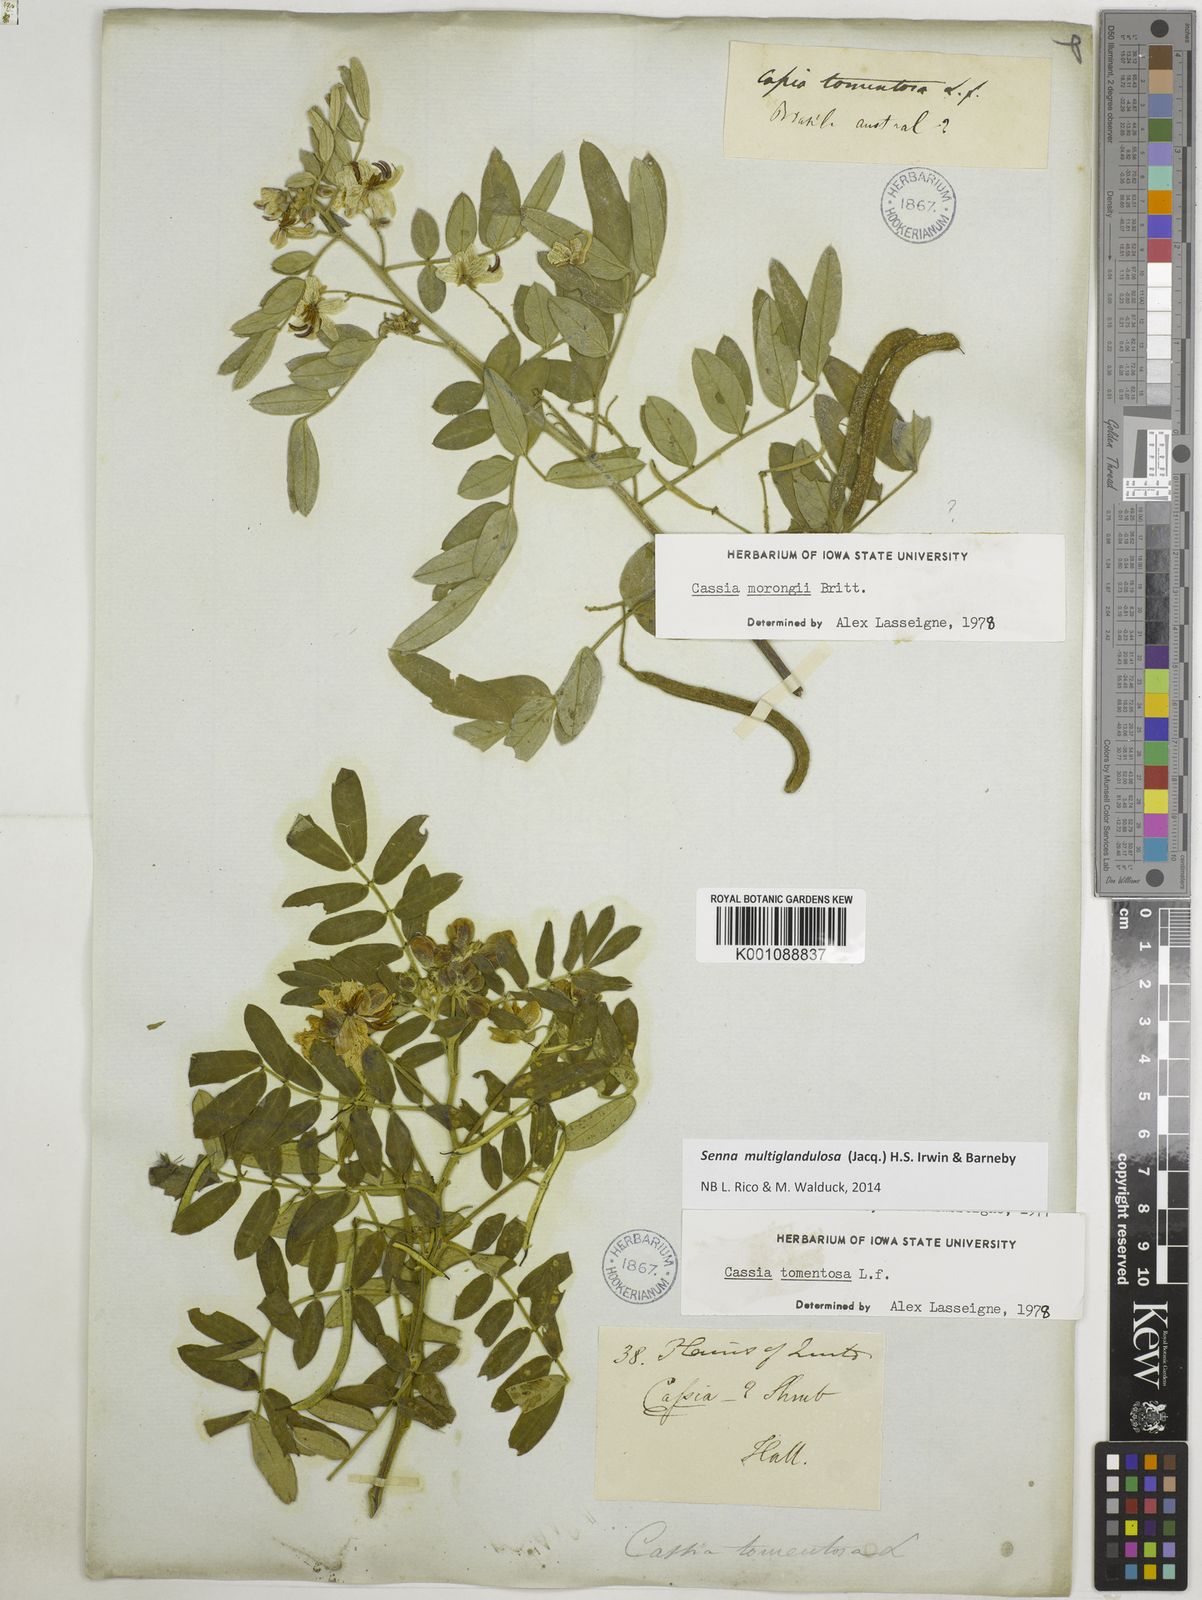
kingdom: Plantae
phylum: Tracheophyta
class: Magnoliopsida
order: Fabales
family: Fabaceae
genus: Senna
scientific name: Senna multiglandulosa
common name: Glandular senna
